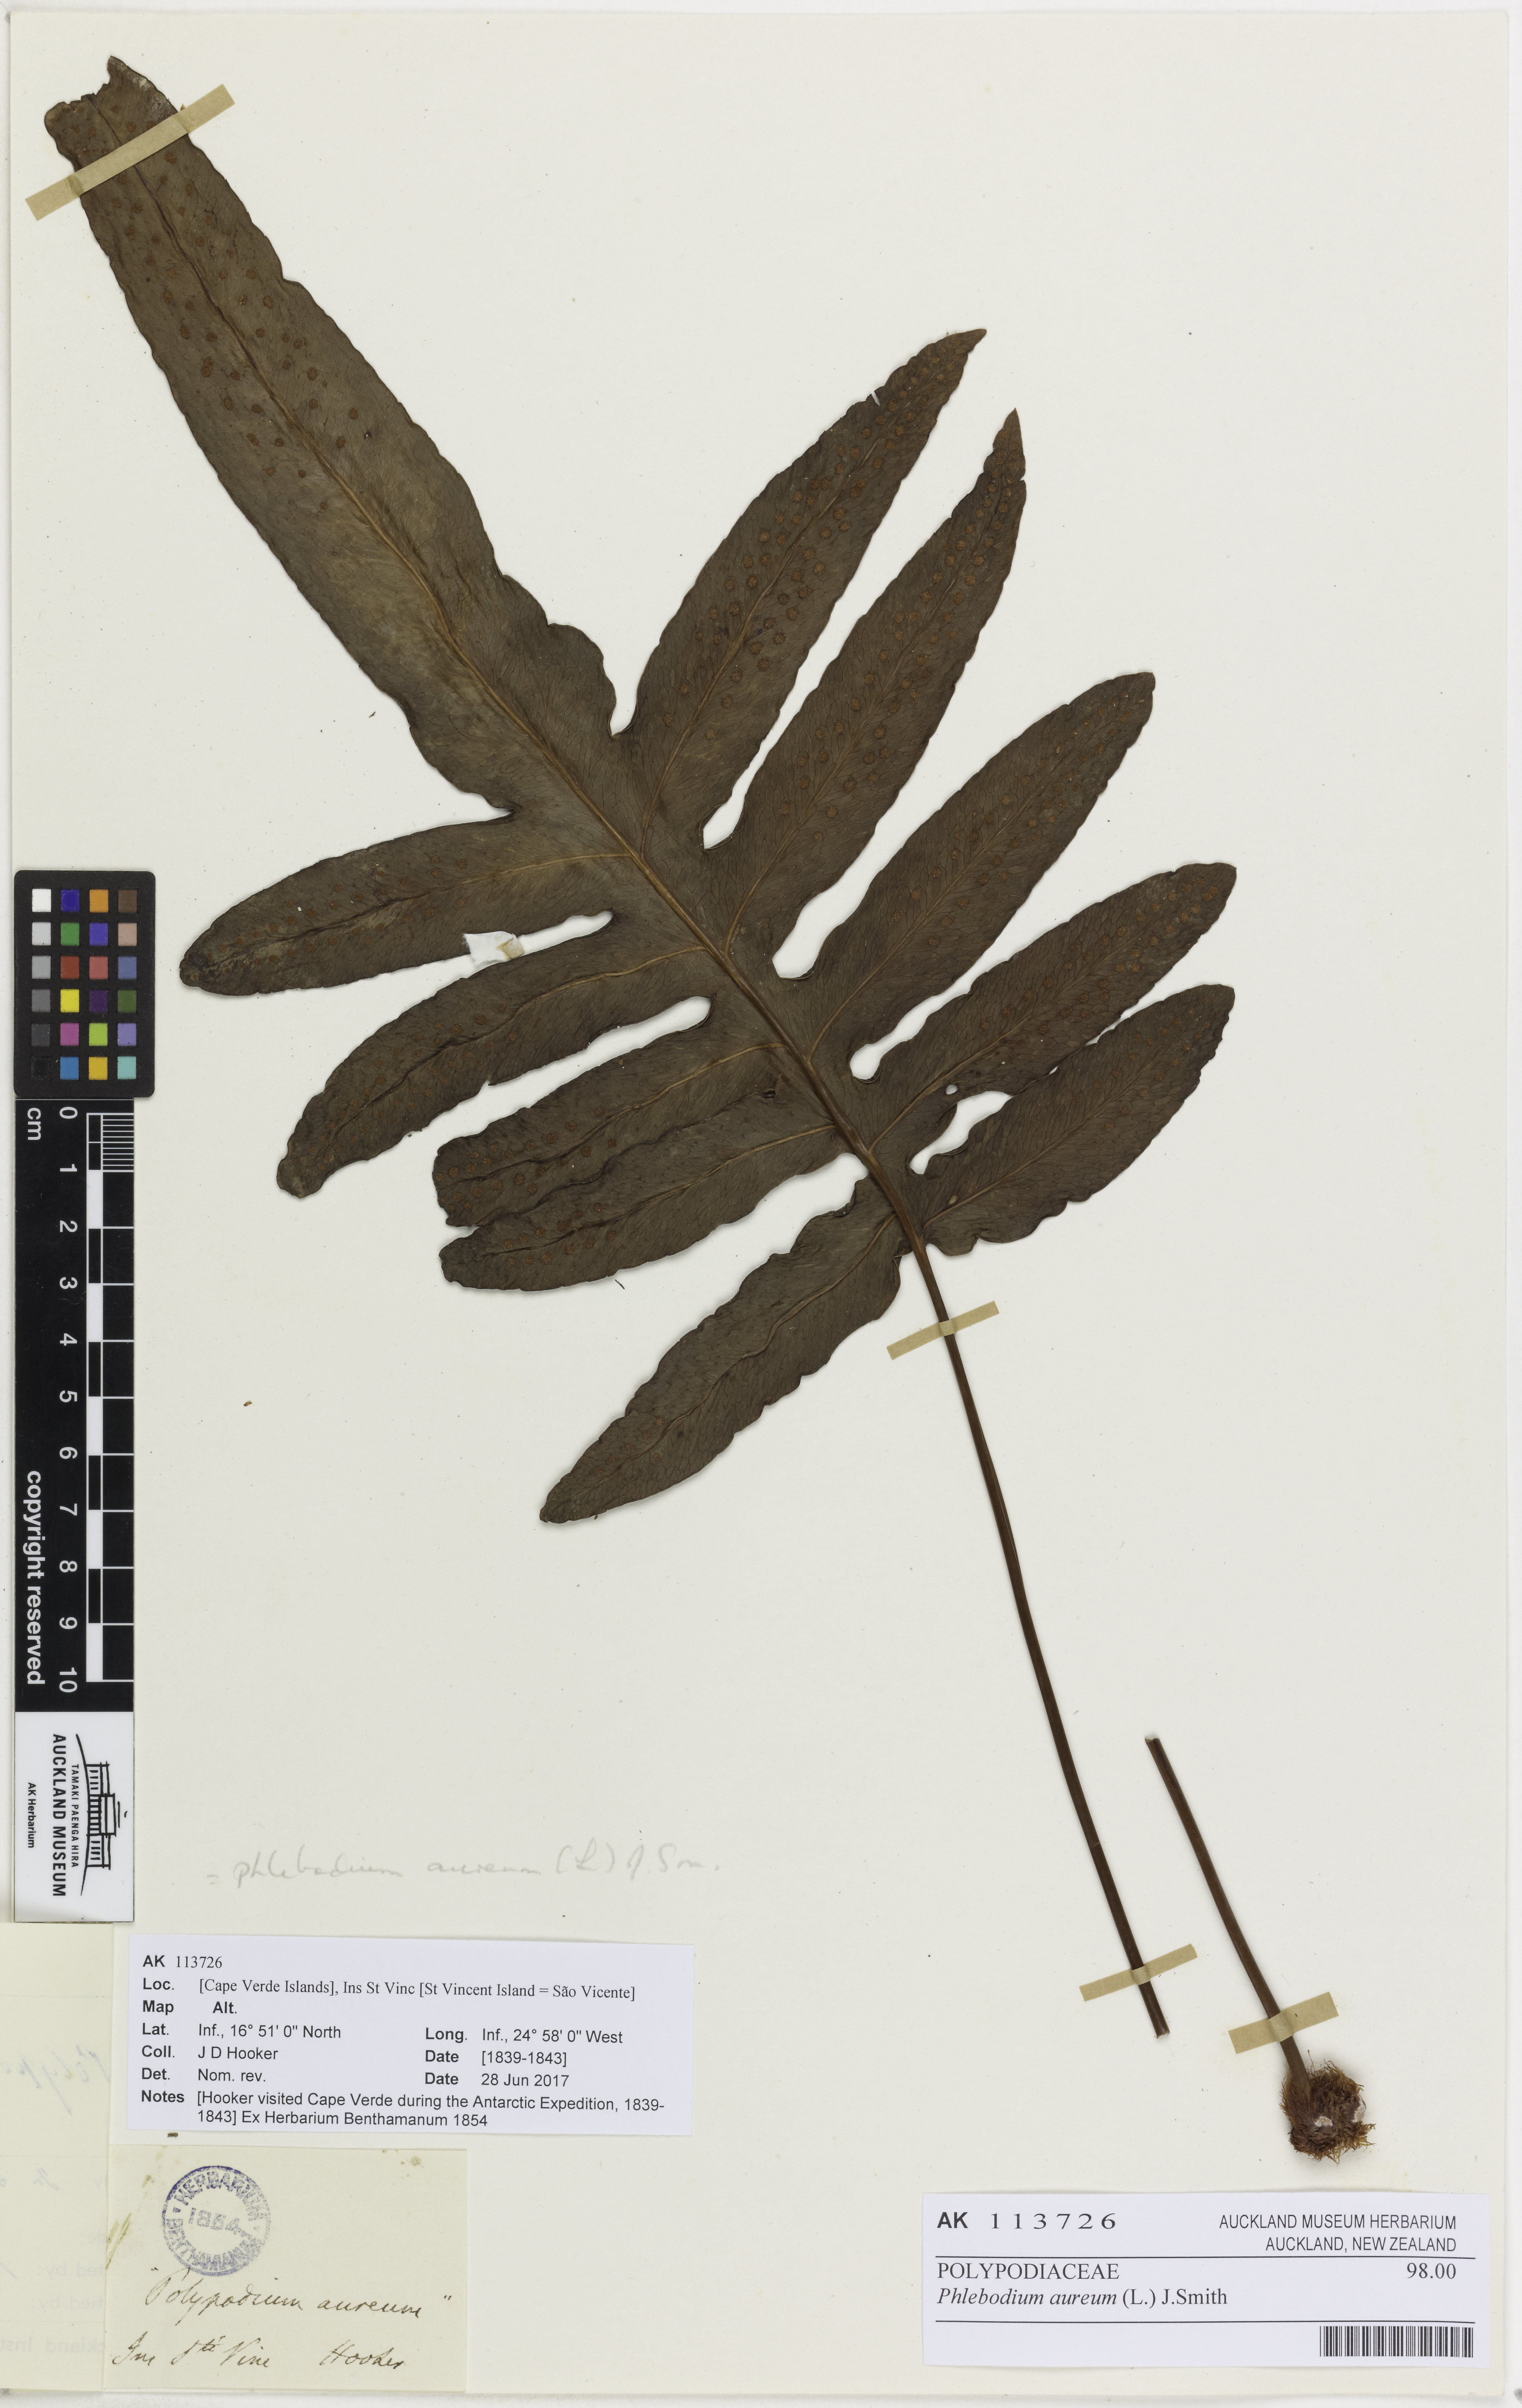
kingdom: Plantae
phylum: Tracheophyta
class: Polypodiopsida
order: Polypodiales
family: Polypodiaceae
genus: Phlebodium
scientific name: Phlebodium aureum
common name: Gold-foot fern
